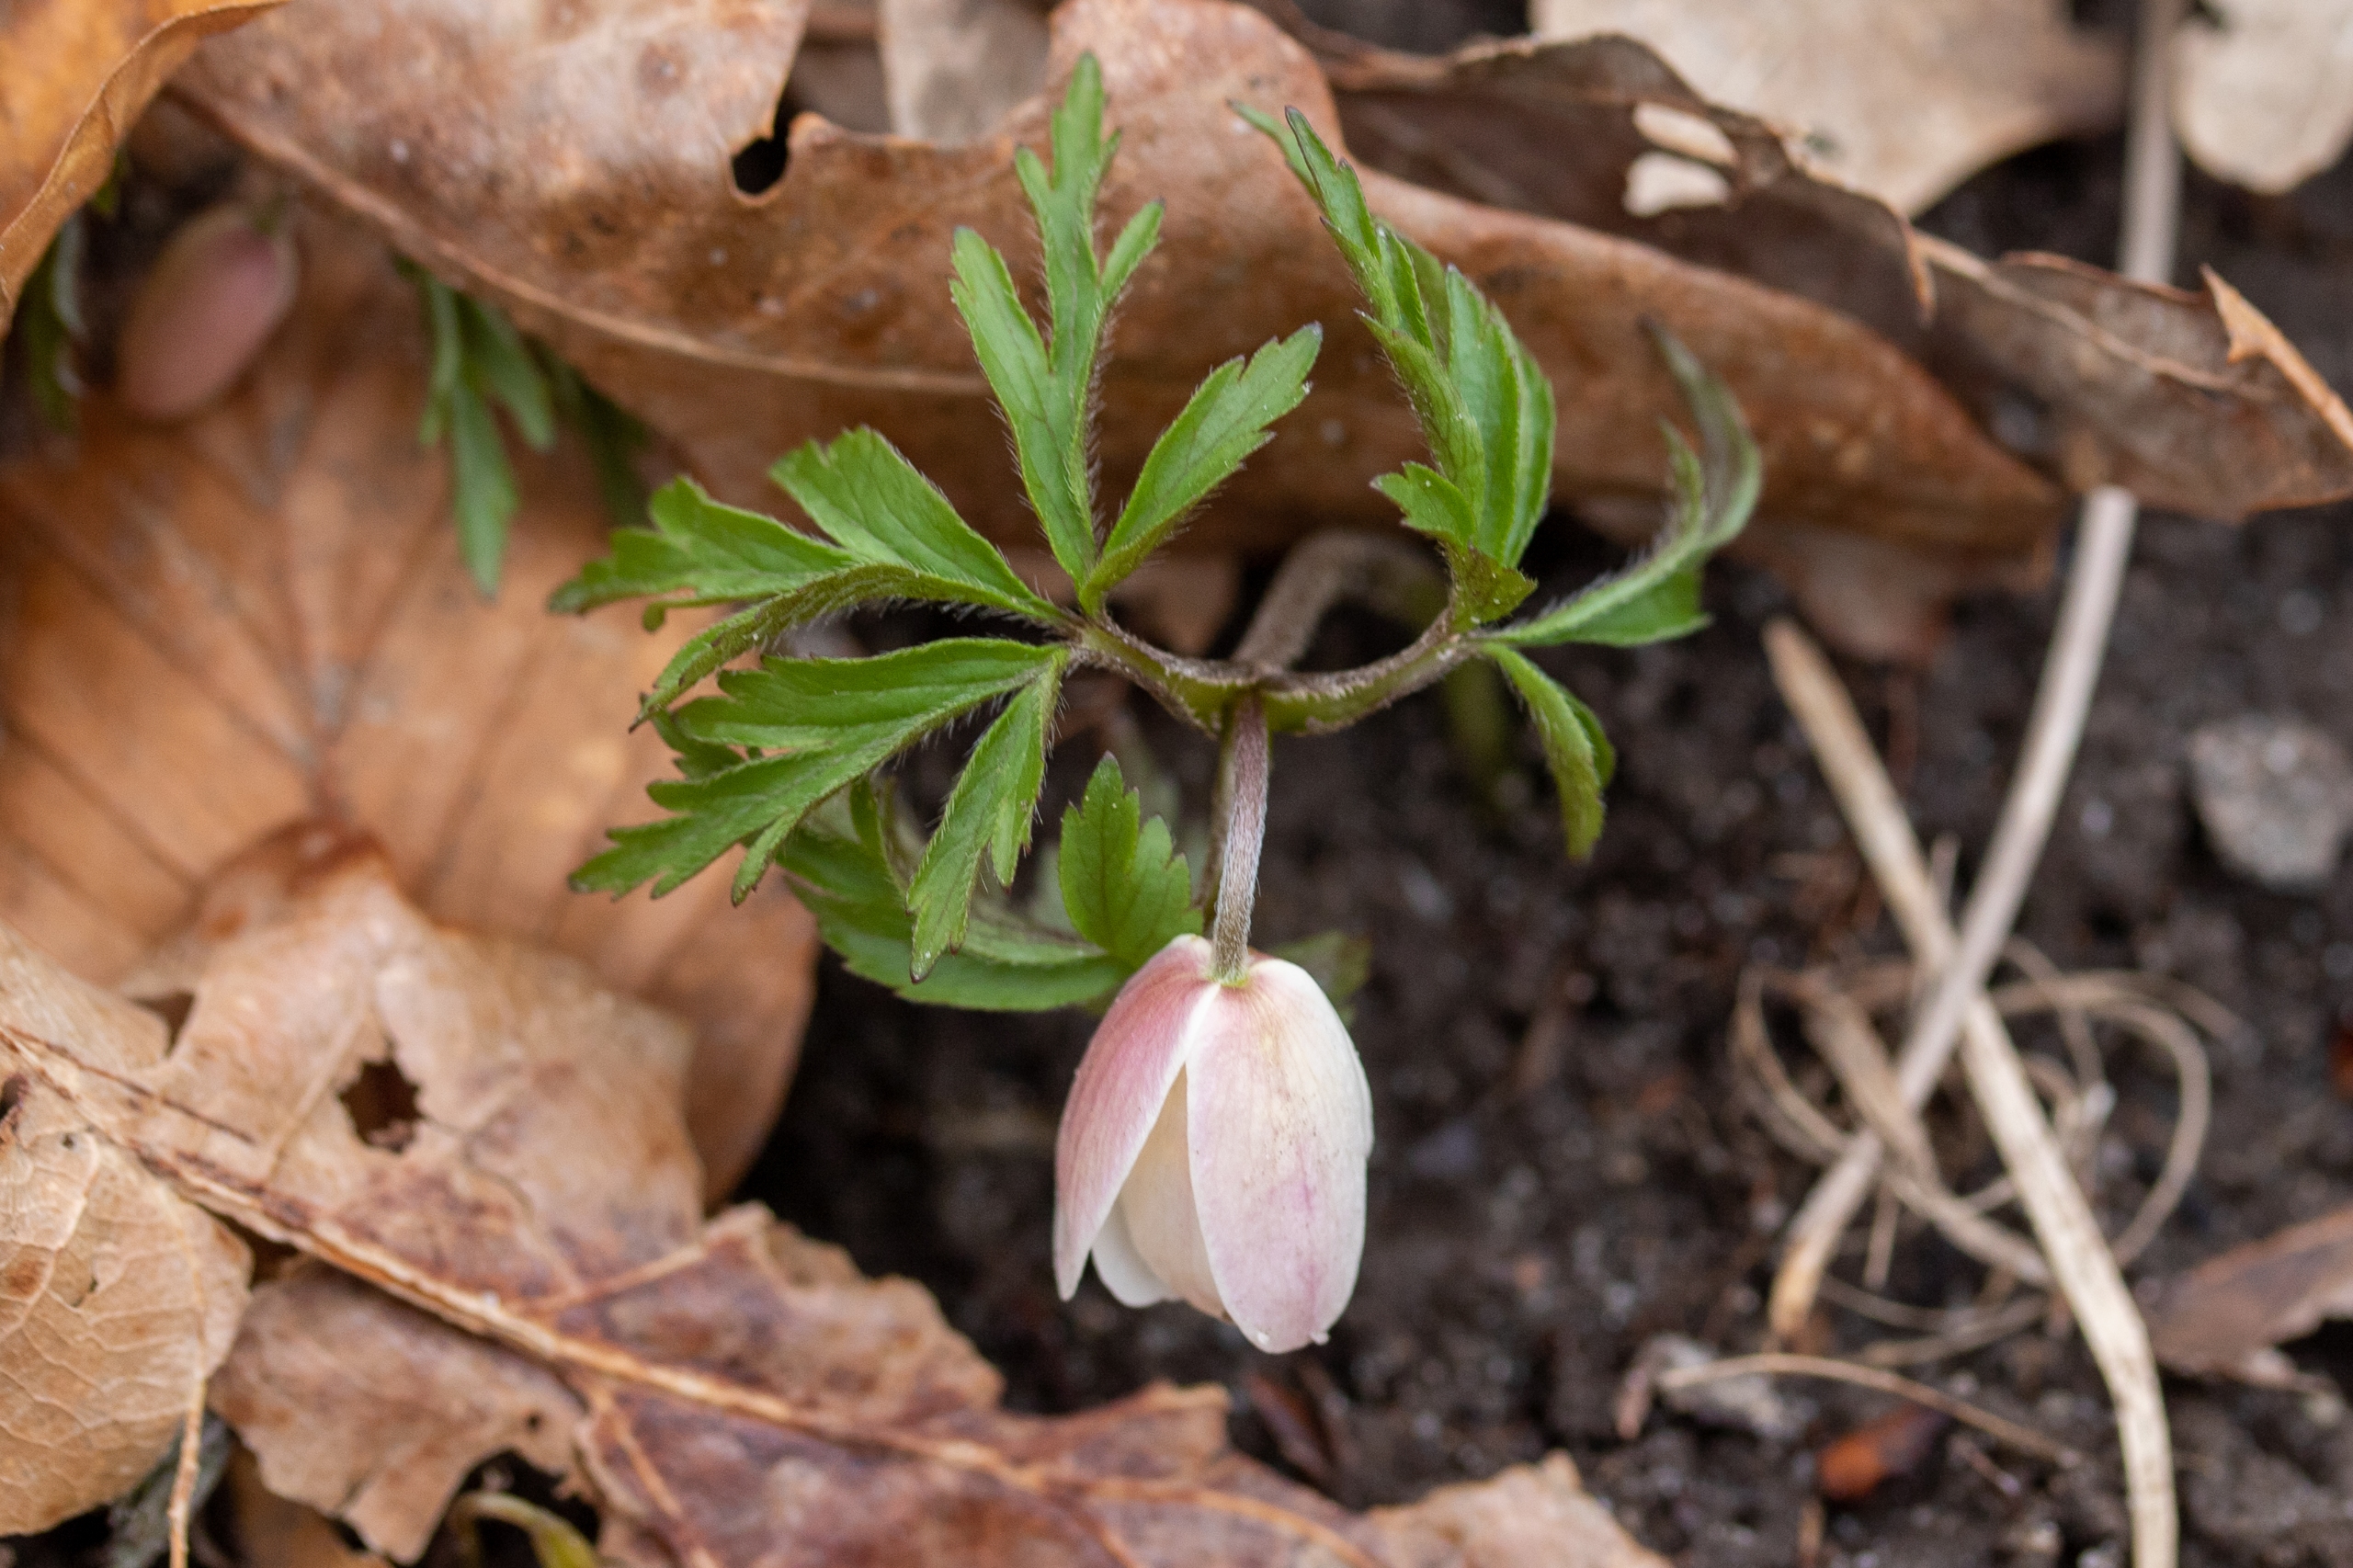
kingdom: Plantae
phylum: Tracheophyta
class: Magnoliopsida
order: Ranunculales
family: Ranunculaceae
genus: Anemone
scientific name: Anemone nemorosa
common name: Hvid anemone
